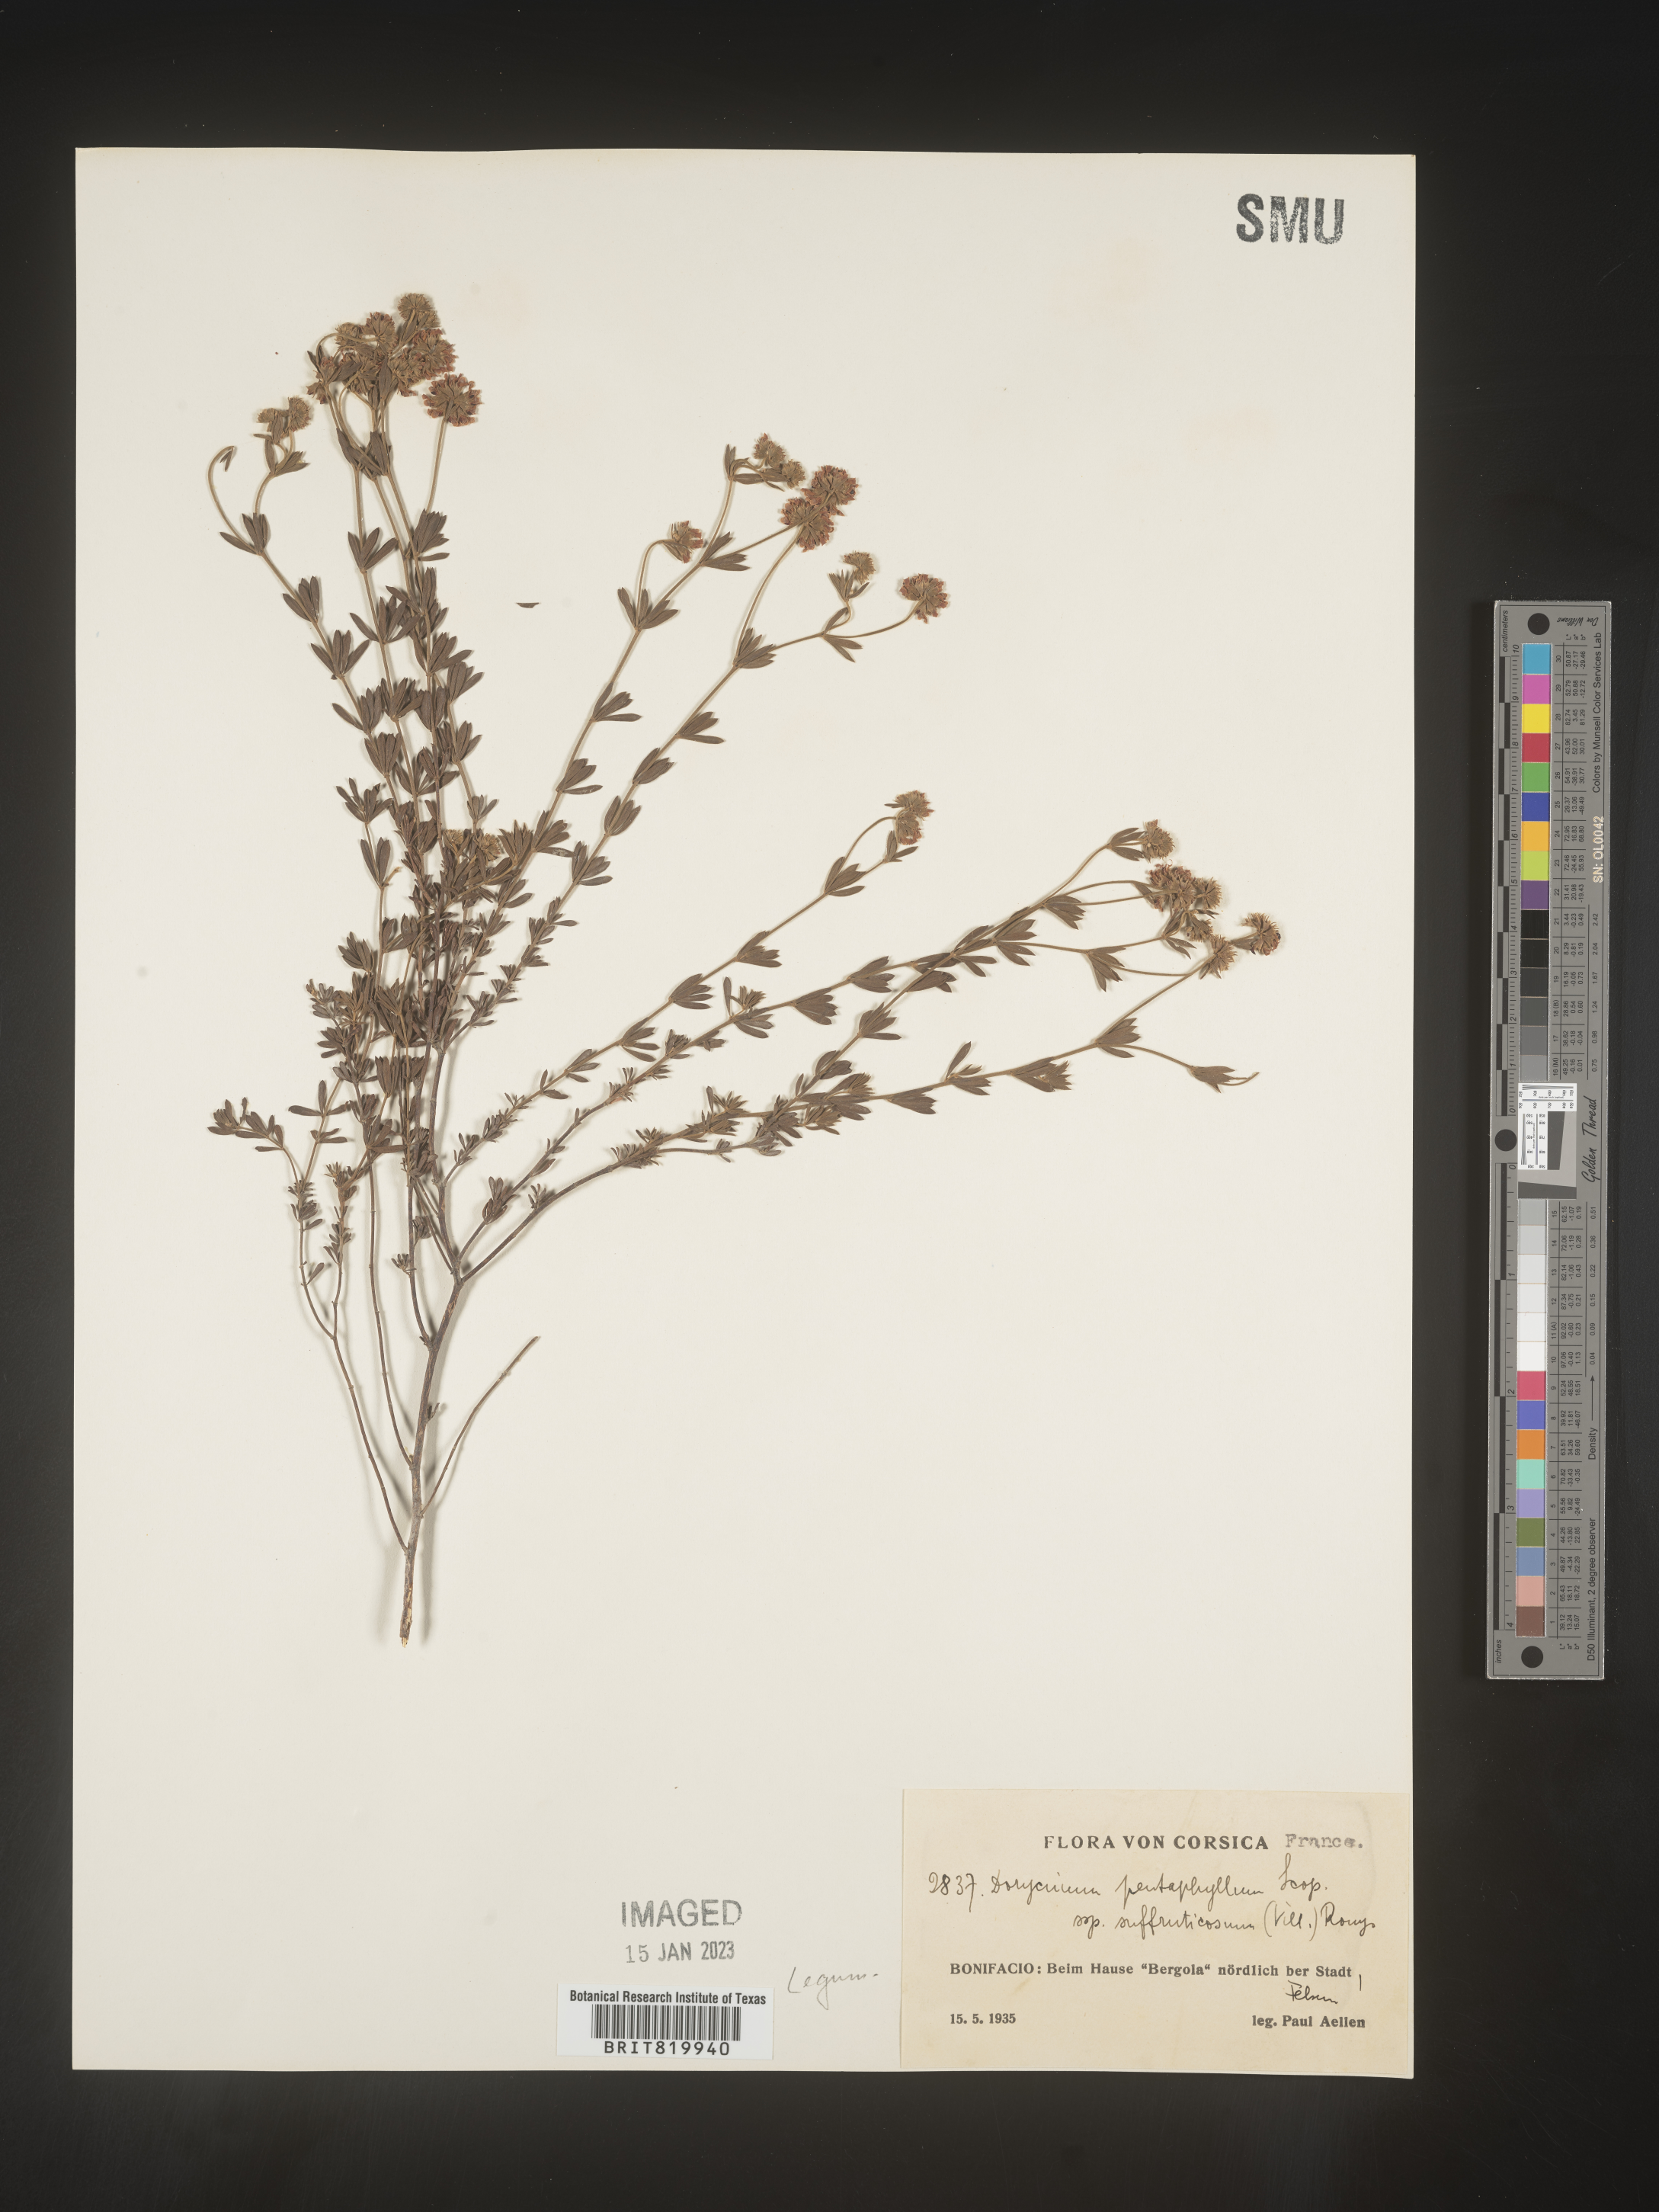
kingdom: Plantae
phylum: Tracheophyta
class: Magnoliopsida
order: Fabales
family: Fabaceae
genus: Lotus
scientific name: Lotus
